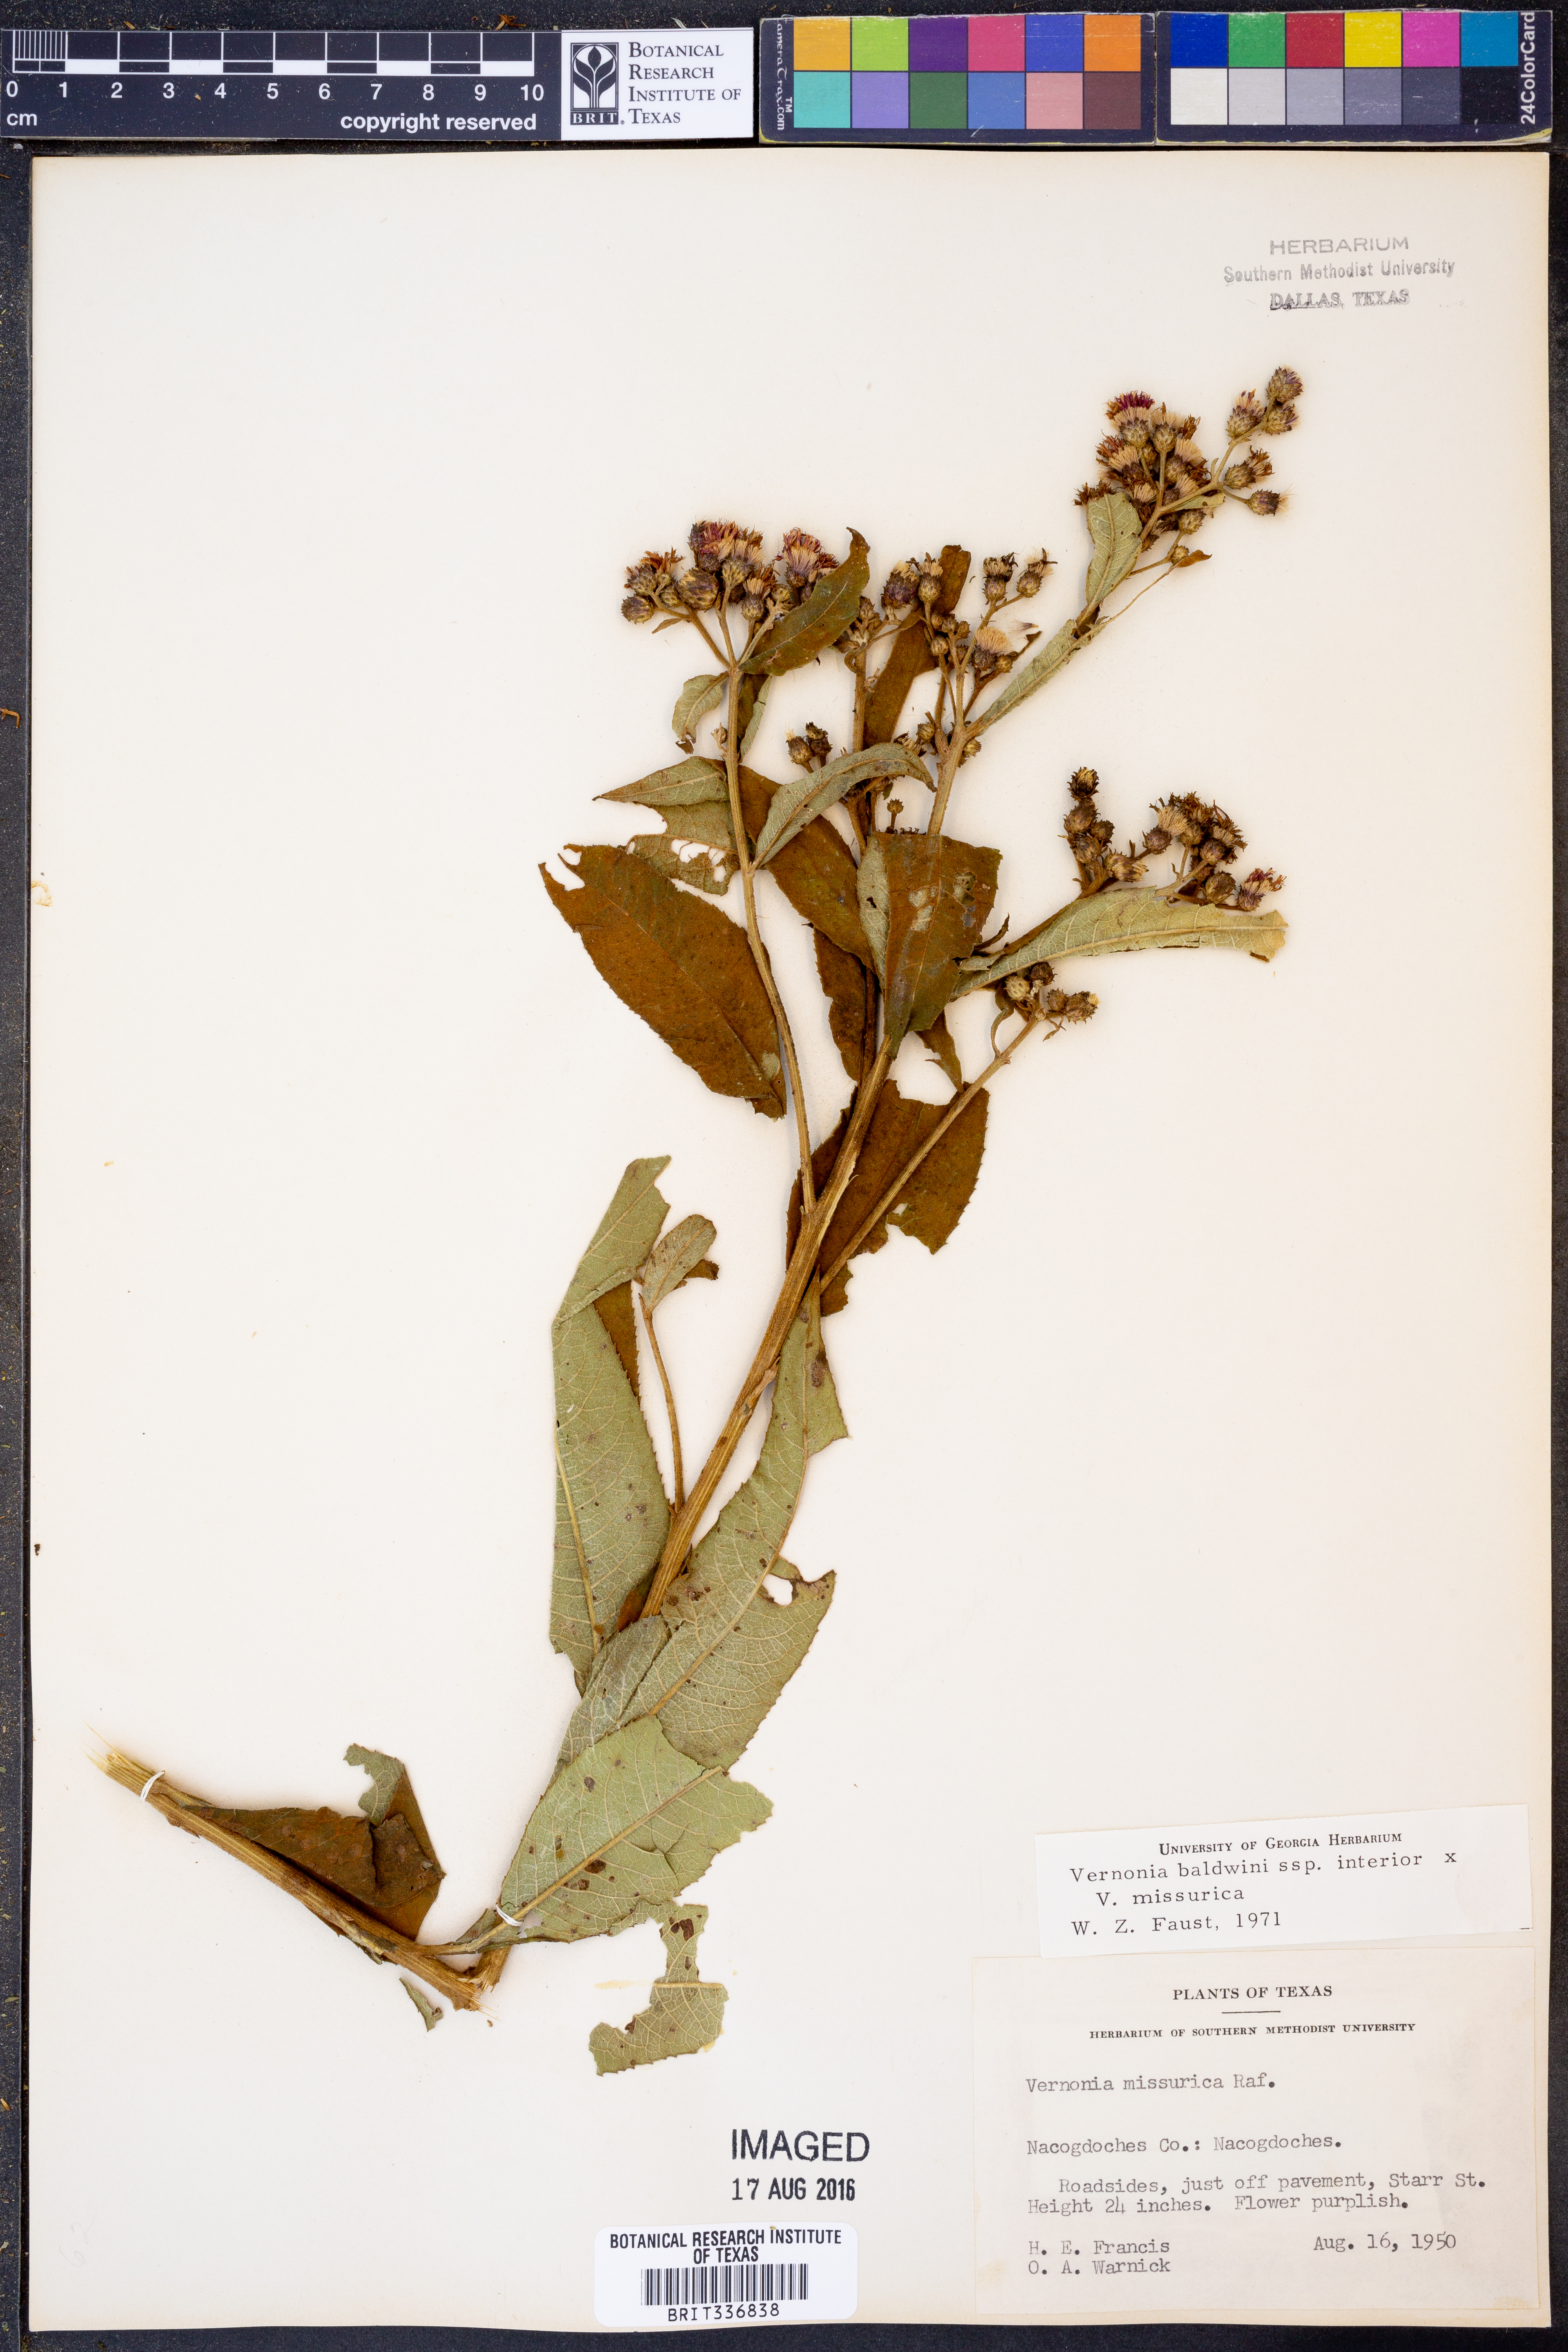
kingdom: Plantae
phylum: Tracheophyta
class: Magnoliopsida
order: Asterales
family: Asteraceae
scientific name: Asteraceae
